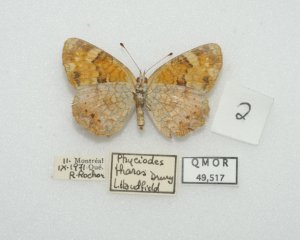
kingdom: Animalia
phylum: Arthropoda
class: Insecta
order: Lepidoptera
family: Nymphalidae
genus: Phyciodes
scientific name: Phyciodes tharos
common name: Northern Crescent
